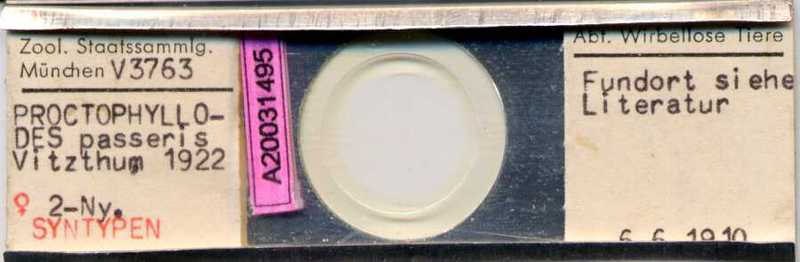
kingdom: Animalia
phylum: Arthropoda
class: Arachnida
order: Sarcoptiformes
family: Proctophyllodidae
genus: Proctophyllodes
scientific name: Proctophyllodes troncatus
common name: Mite
